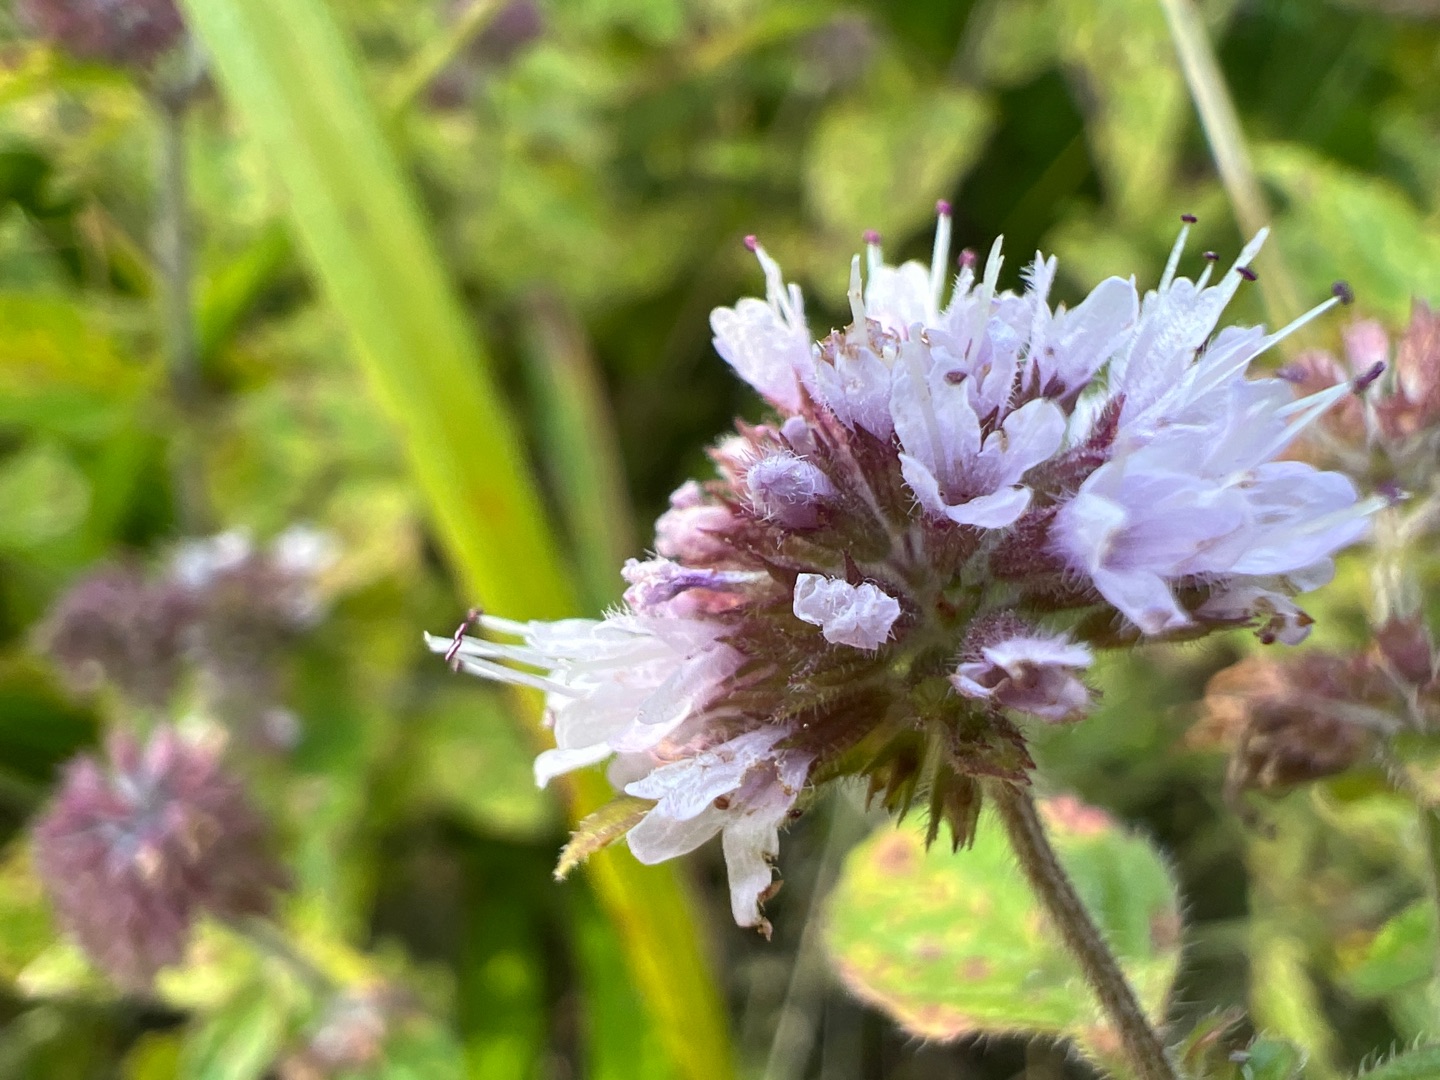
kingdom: Plantae
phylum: Tracheophyta
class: Magnoliopsida
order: Lamiales
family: Lamiaceae
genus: Mentha
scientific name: Mentha aquatica
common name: Vand-mynte
